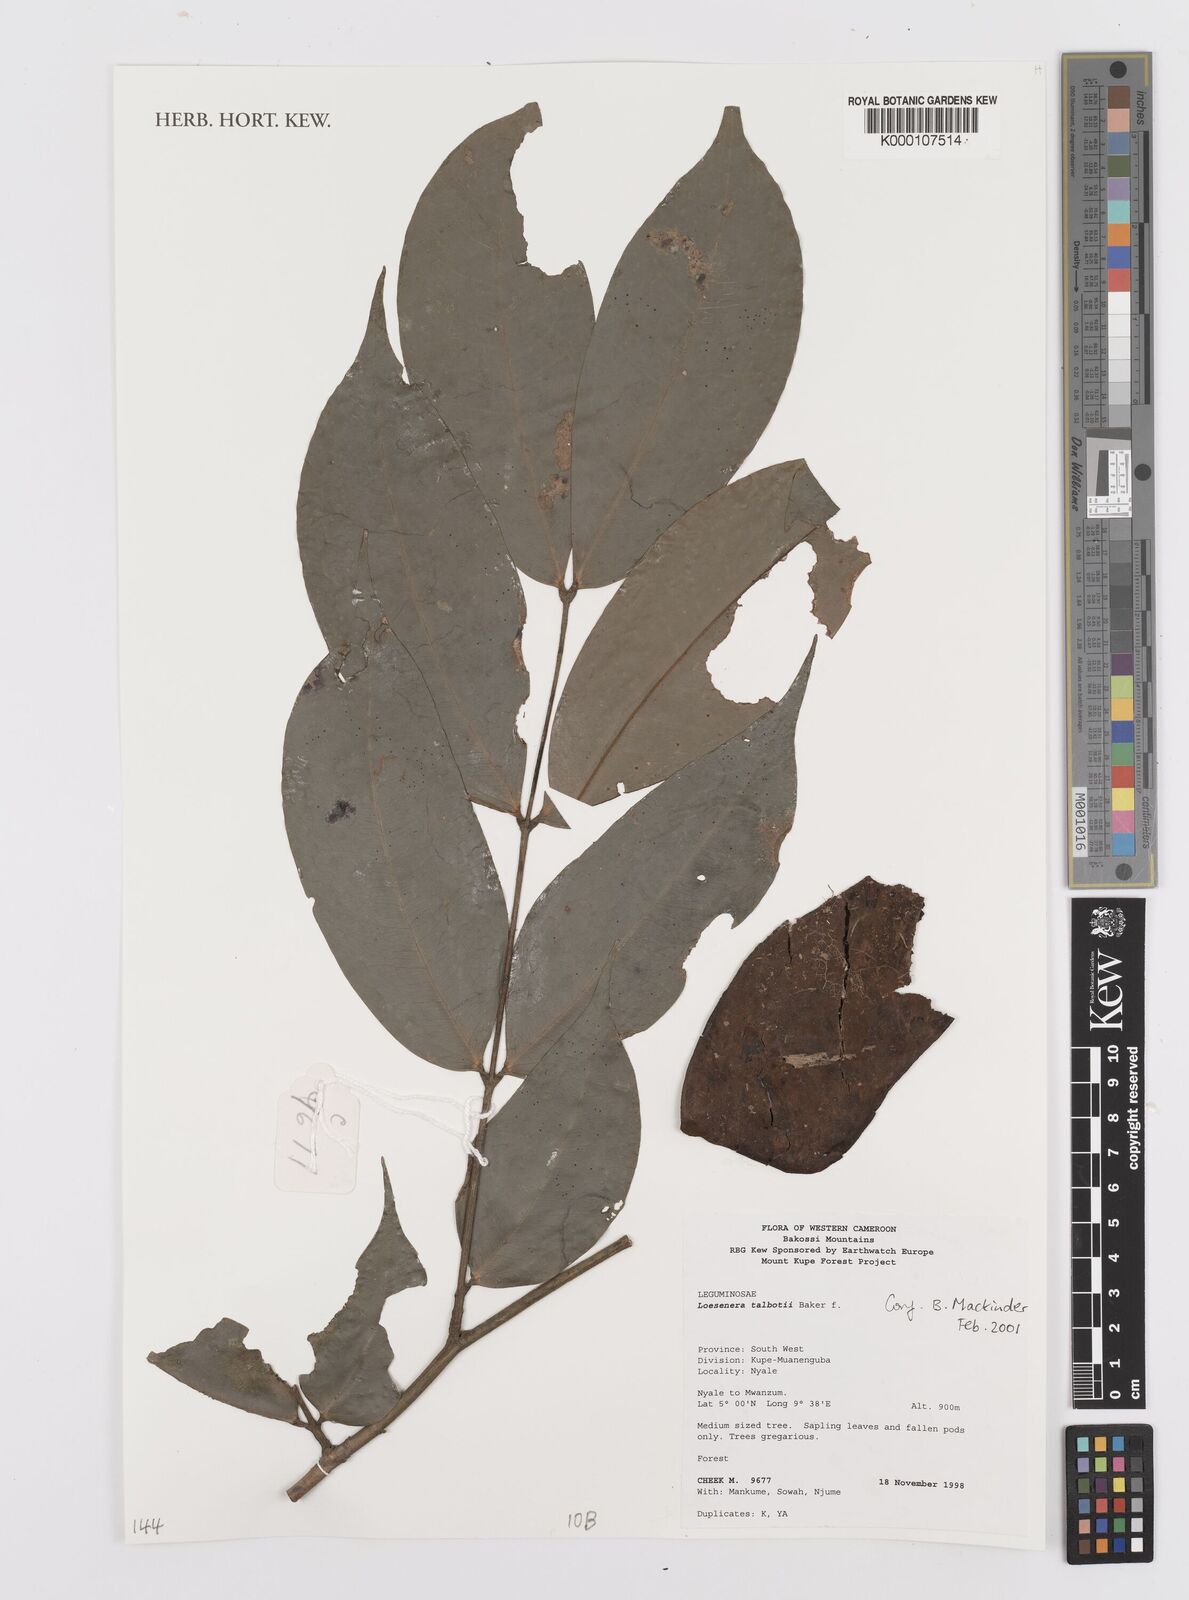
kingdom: Plantae
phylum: Tracheophyta
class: Magnoliopsida
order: Fabales
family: Fabaceae
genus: Loesenera
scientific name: Loesenera talbotii
